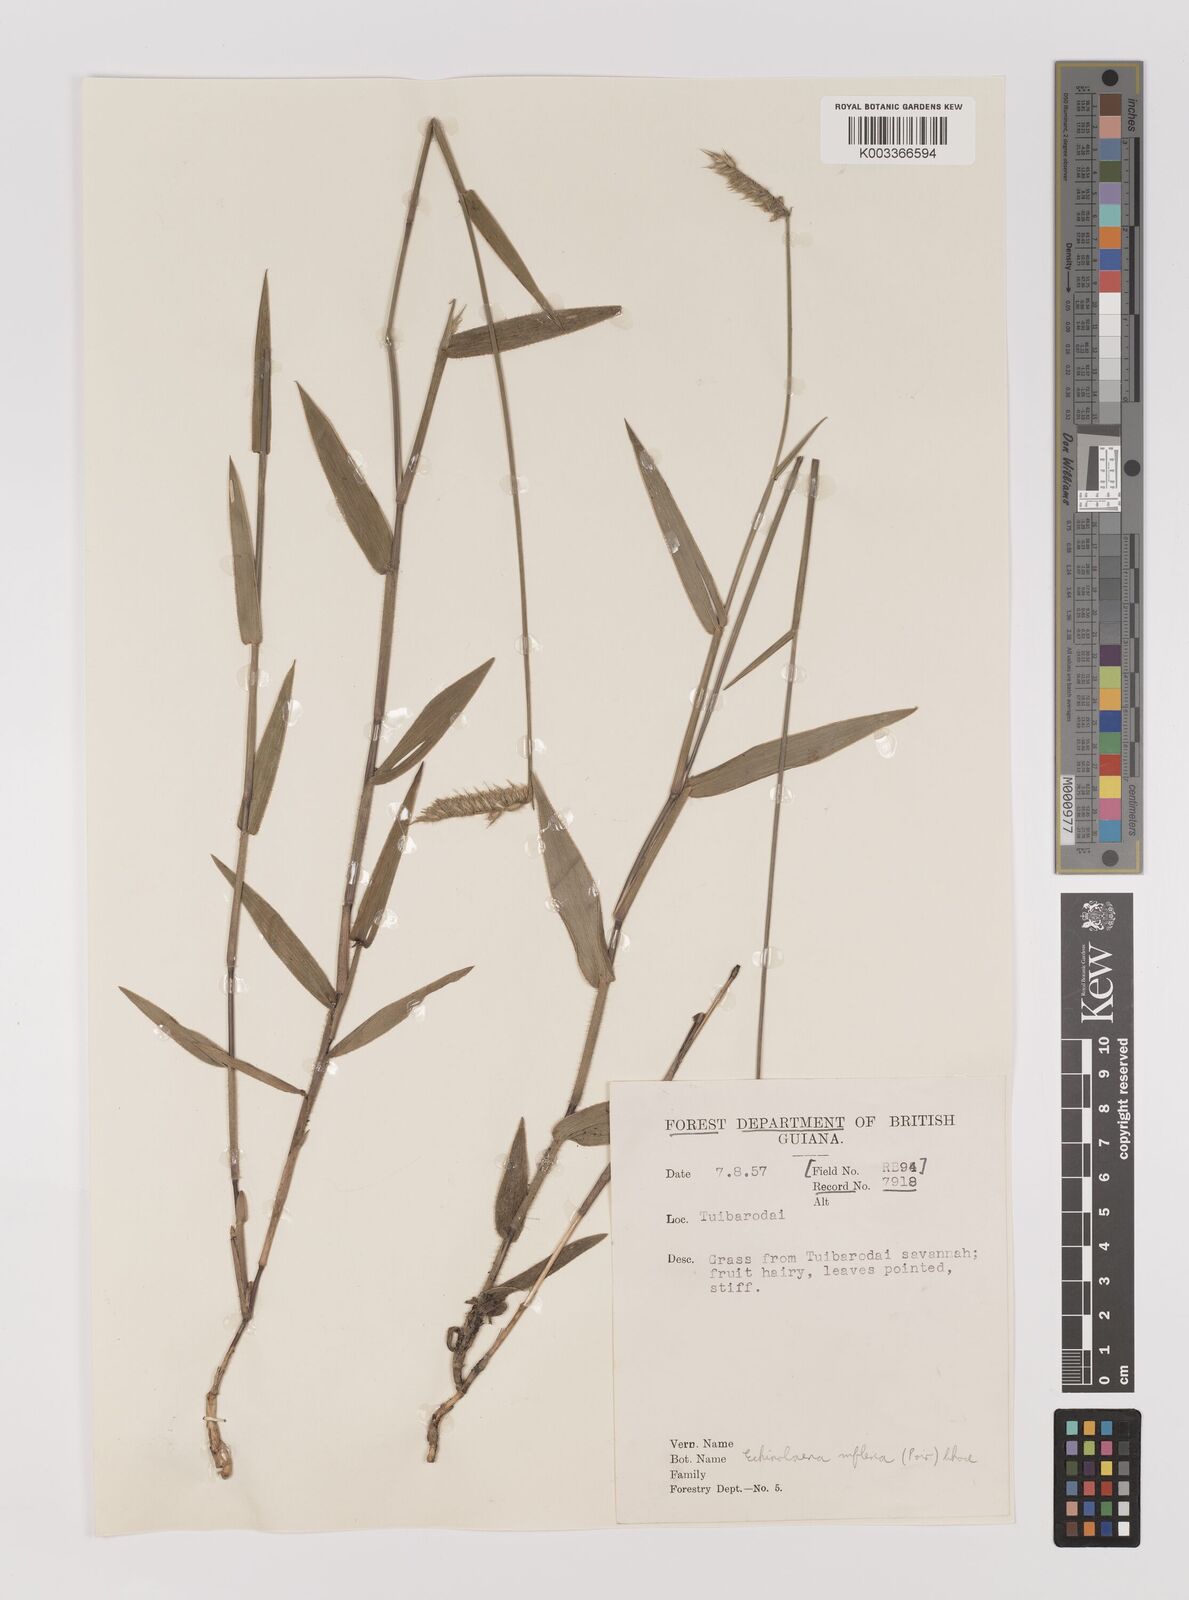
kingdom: Plantae
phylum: Tracheophyta
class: Liliopsida
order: Poales
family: Poaceae
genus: Echinolaena
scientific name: Echinolaena inflexa
